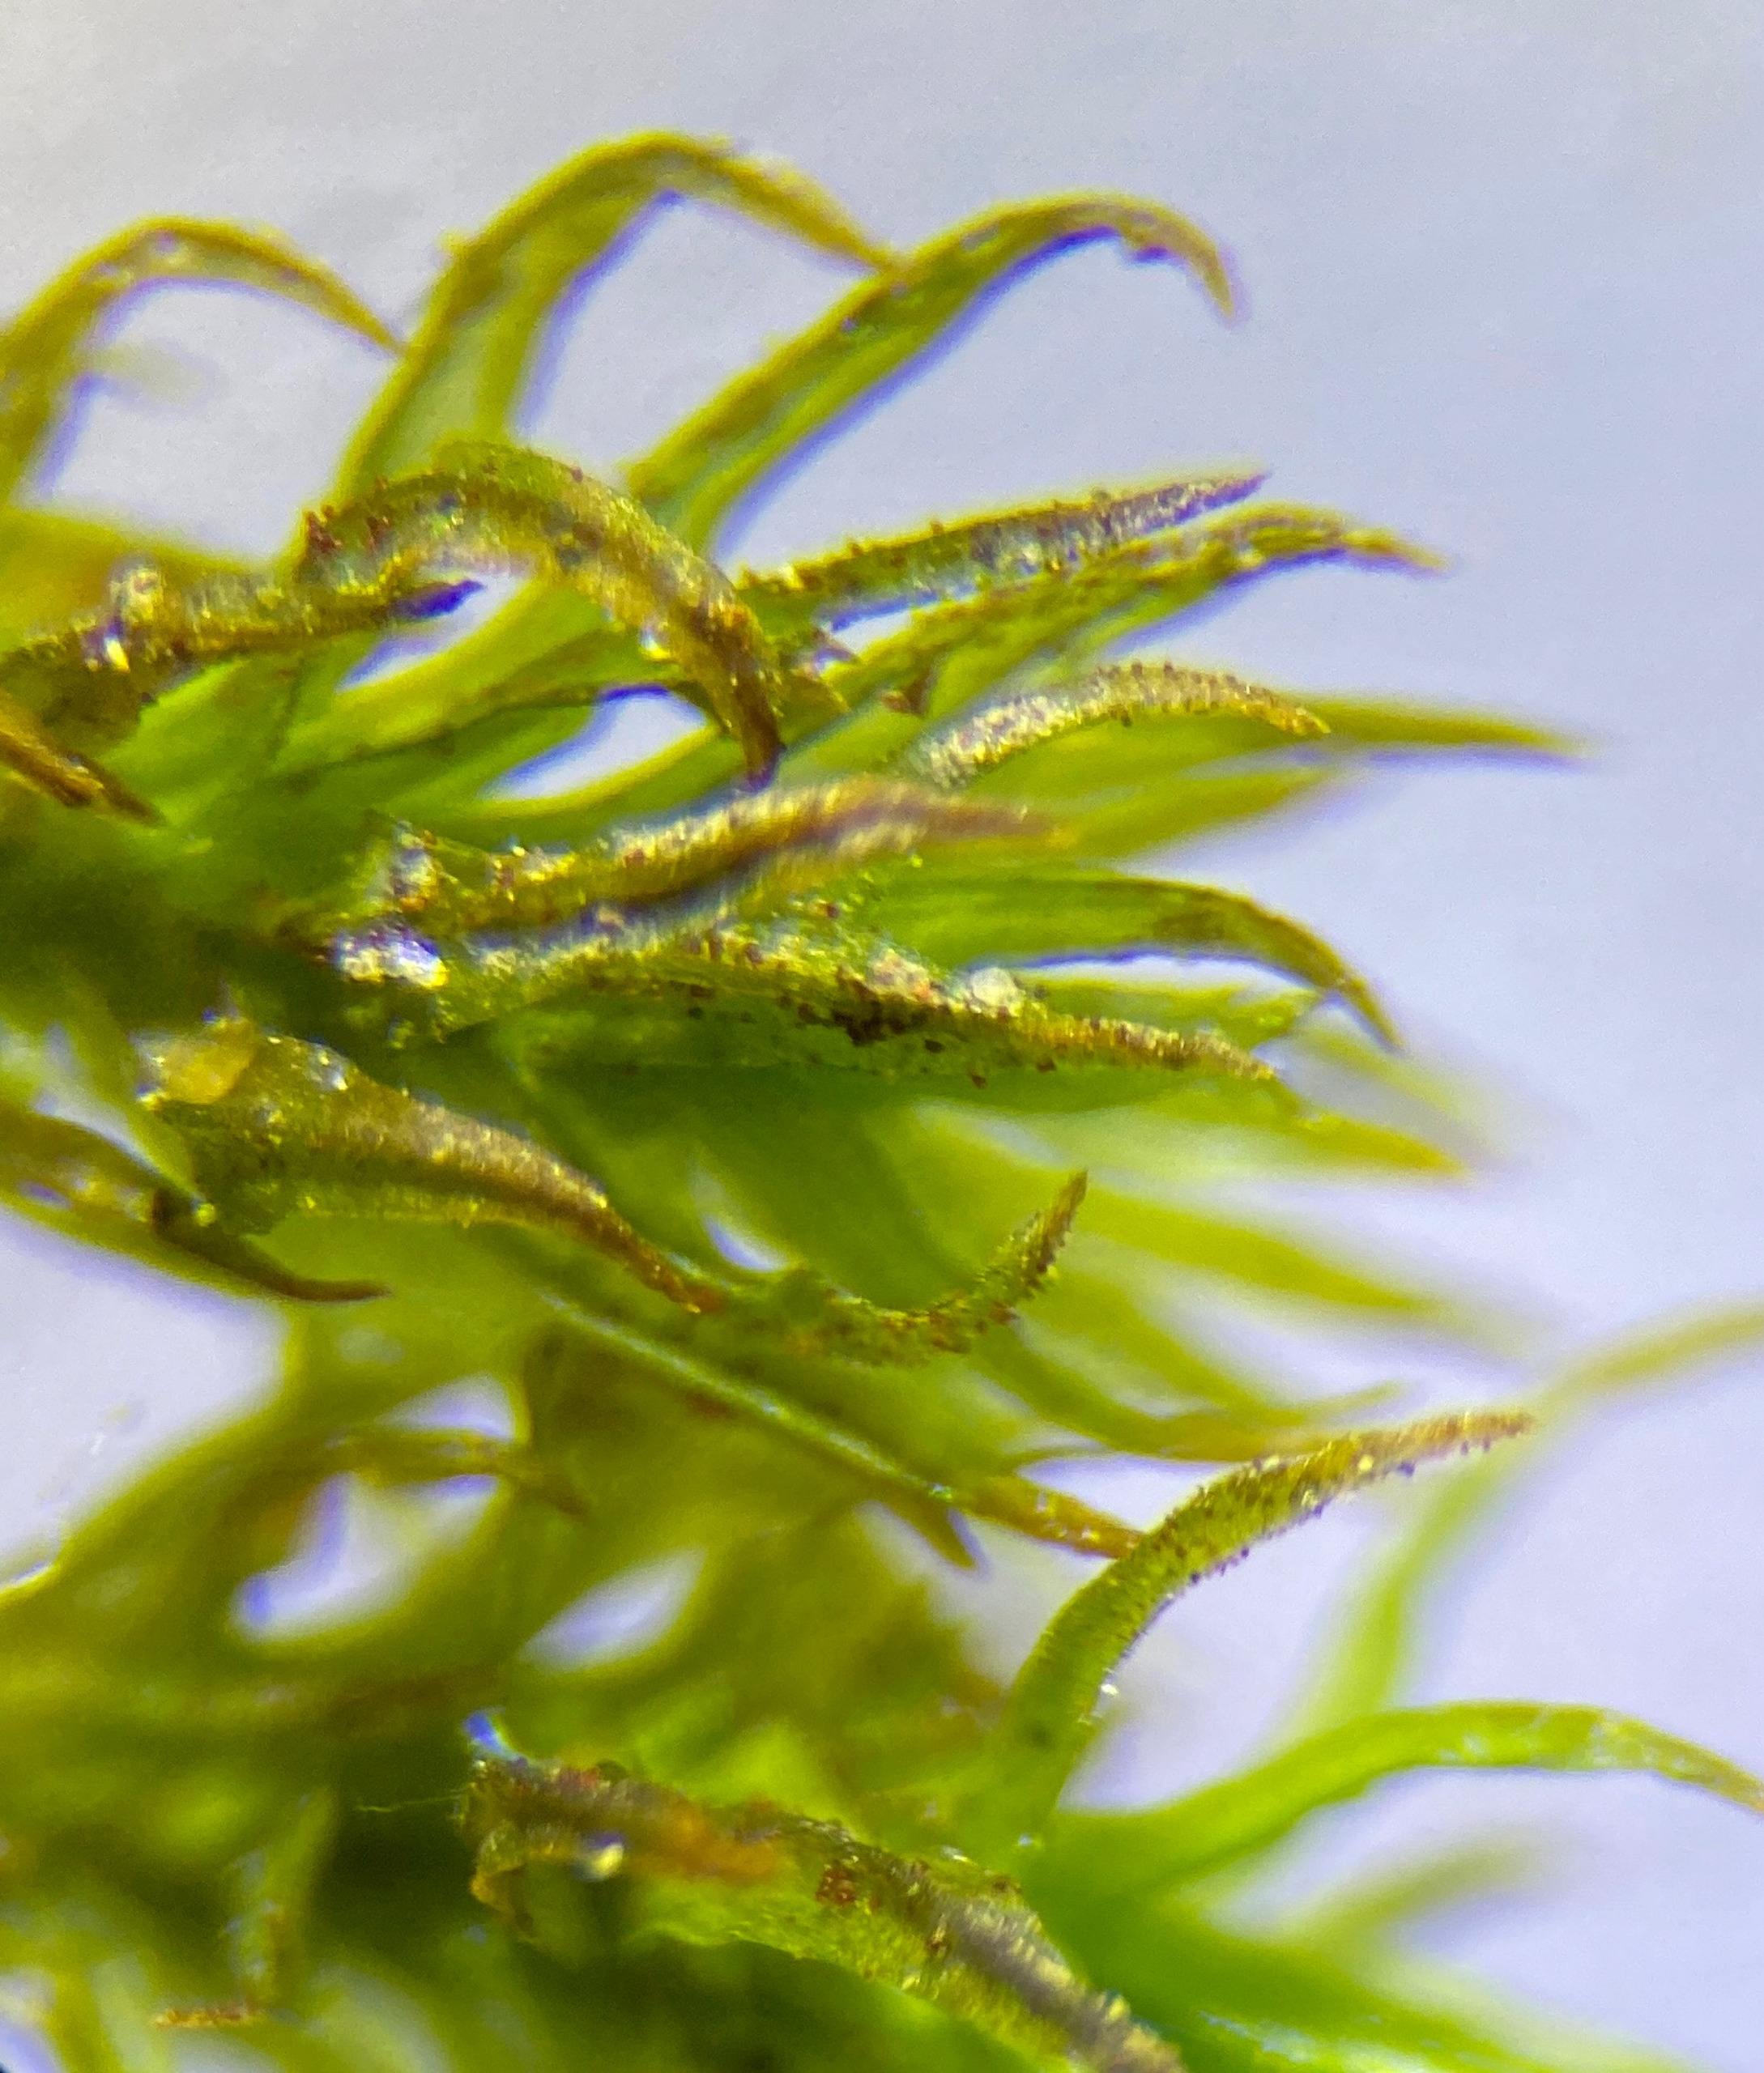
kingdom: Plantae
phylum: Bryophyta
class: Bryopsida
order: Orthotrichales
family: Orthotrichaceae
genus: Pulvigera
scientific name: Pulvigera lyellii
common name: Stor furehætte
